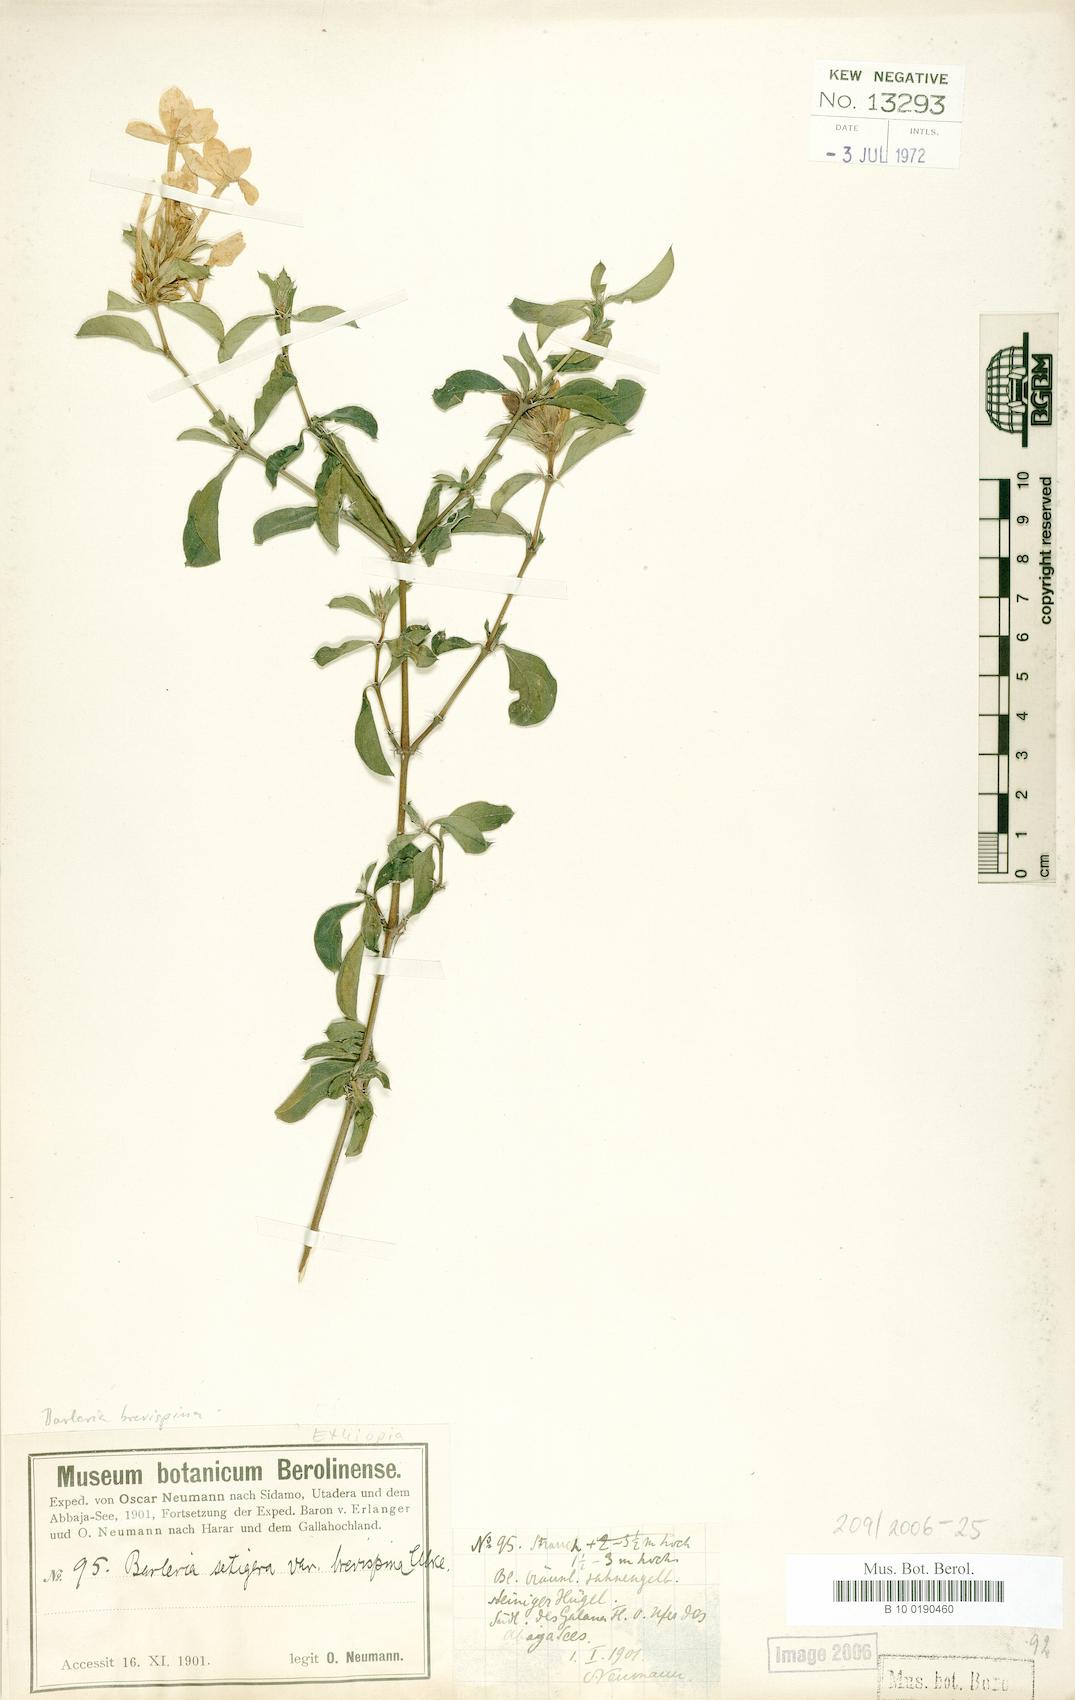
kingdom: Plantae
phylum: Tracheophyta
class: Magnoliopsida
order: Lamiales
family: Acanthaceae
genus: Barleria
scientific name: Barleria quadrispina
